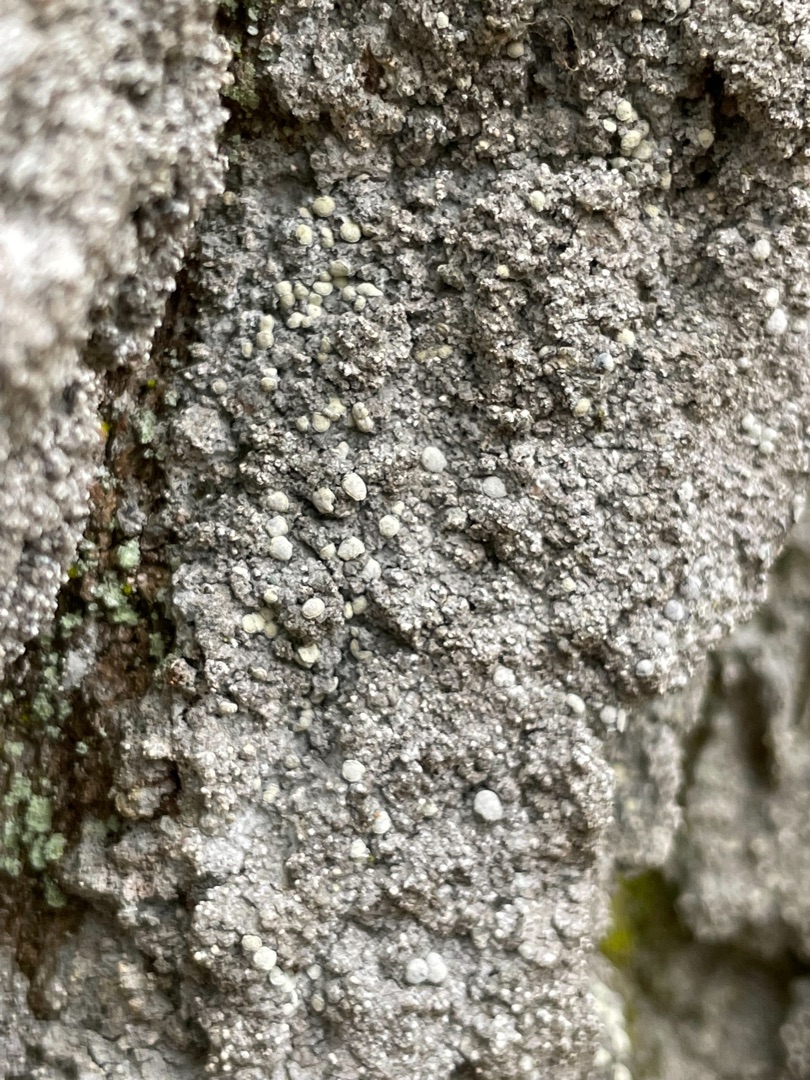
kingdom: Fungi
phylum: Ascomycota
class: Arthoniomycetes
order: Arthoniales
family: Roccellaceae
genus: Lecanactis
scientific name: Lecanactis abietina
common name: Grå dugskivelav
